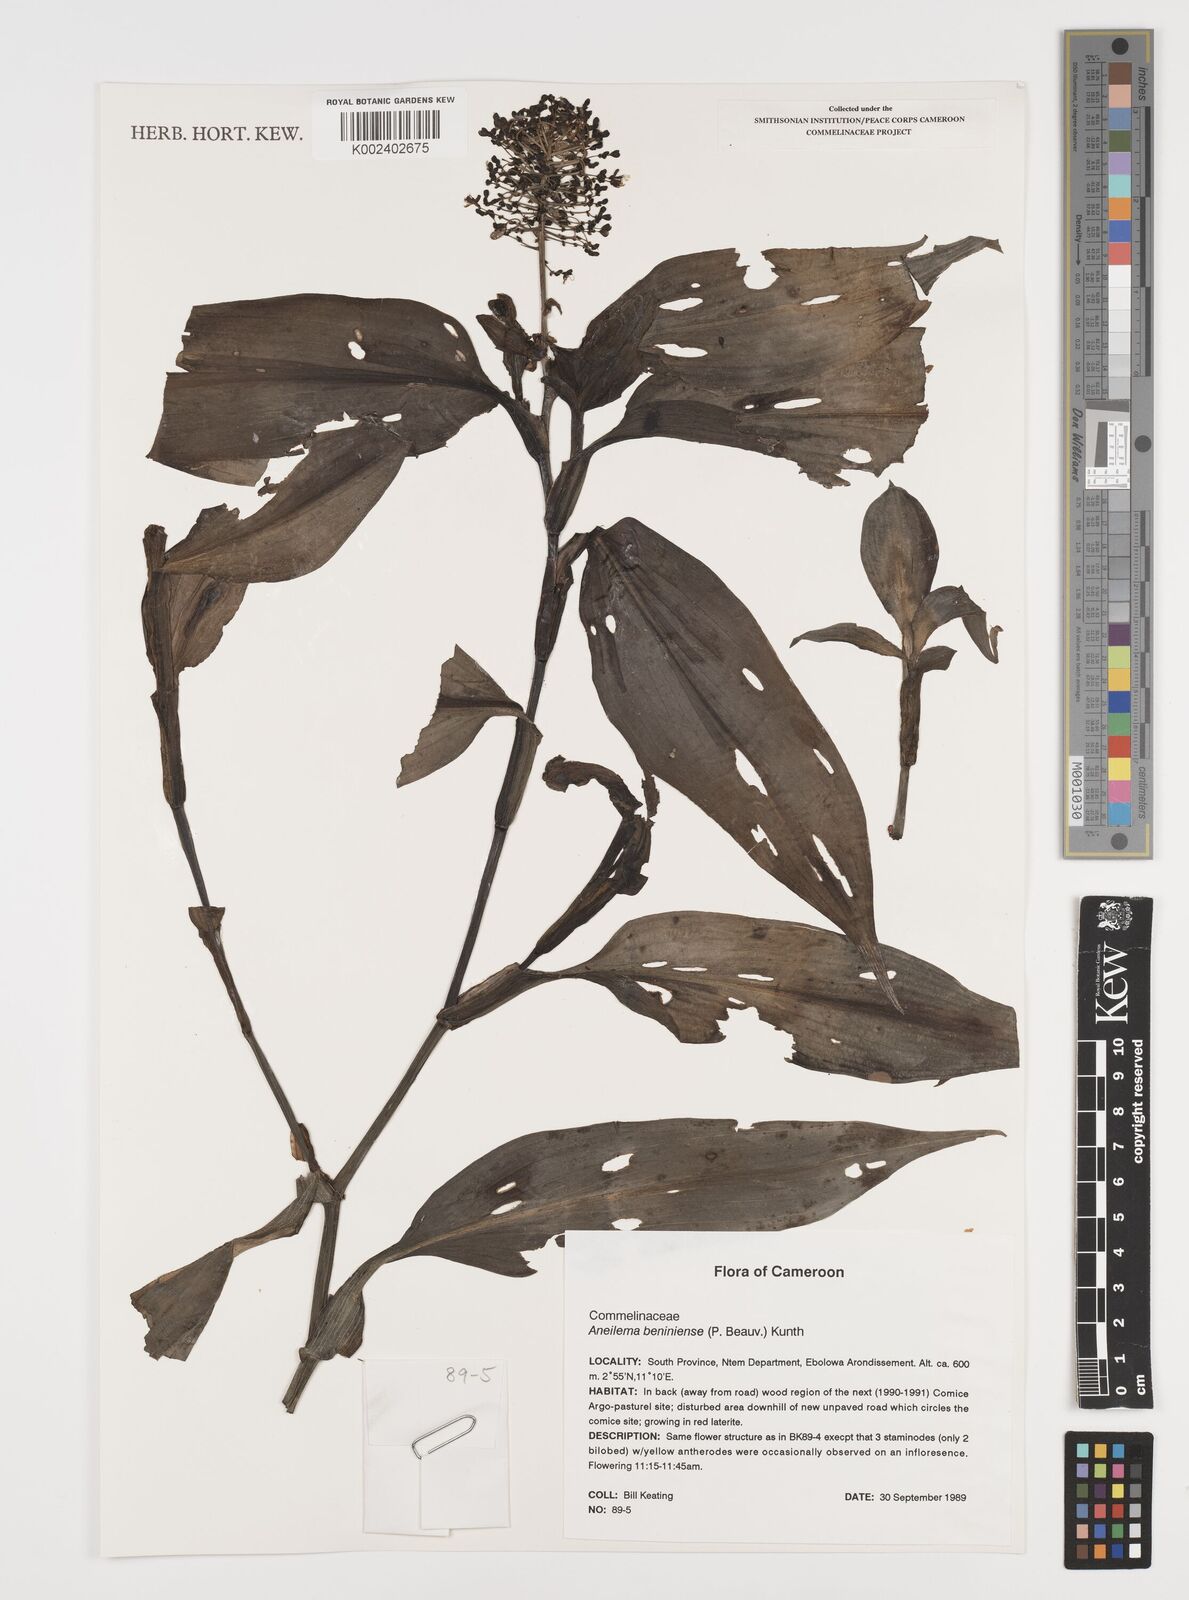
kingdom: Plantae
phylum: Tracheophyta
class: Liliopsida
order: Commelinales
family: Commelinaceae
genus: Aneilema
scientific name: Aneilema beniniense
